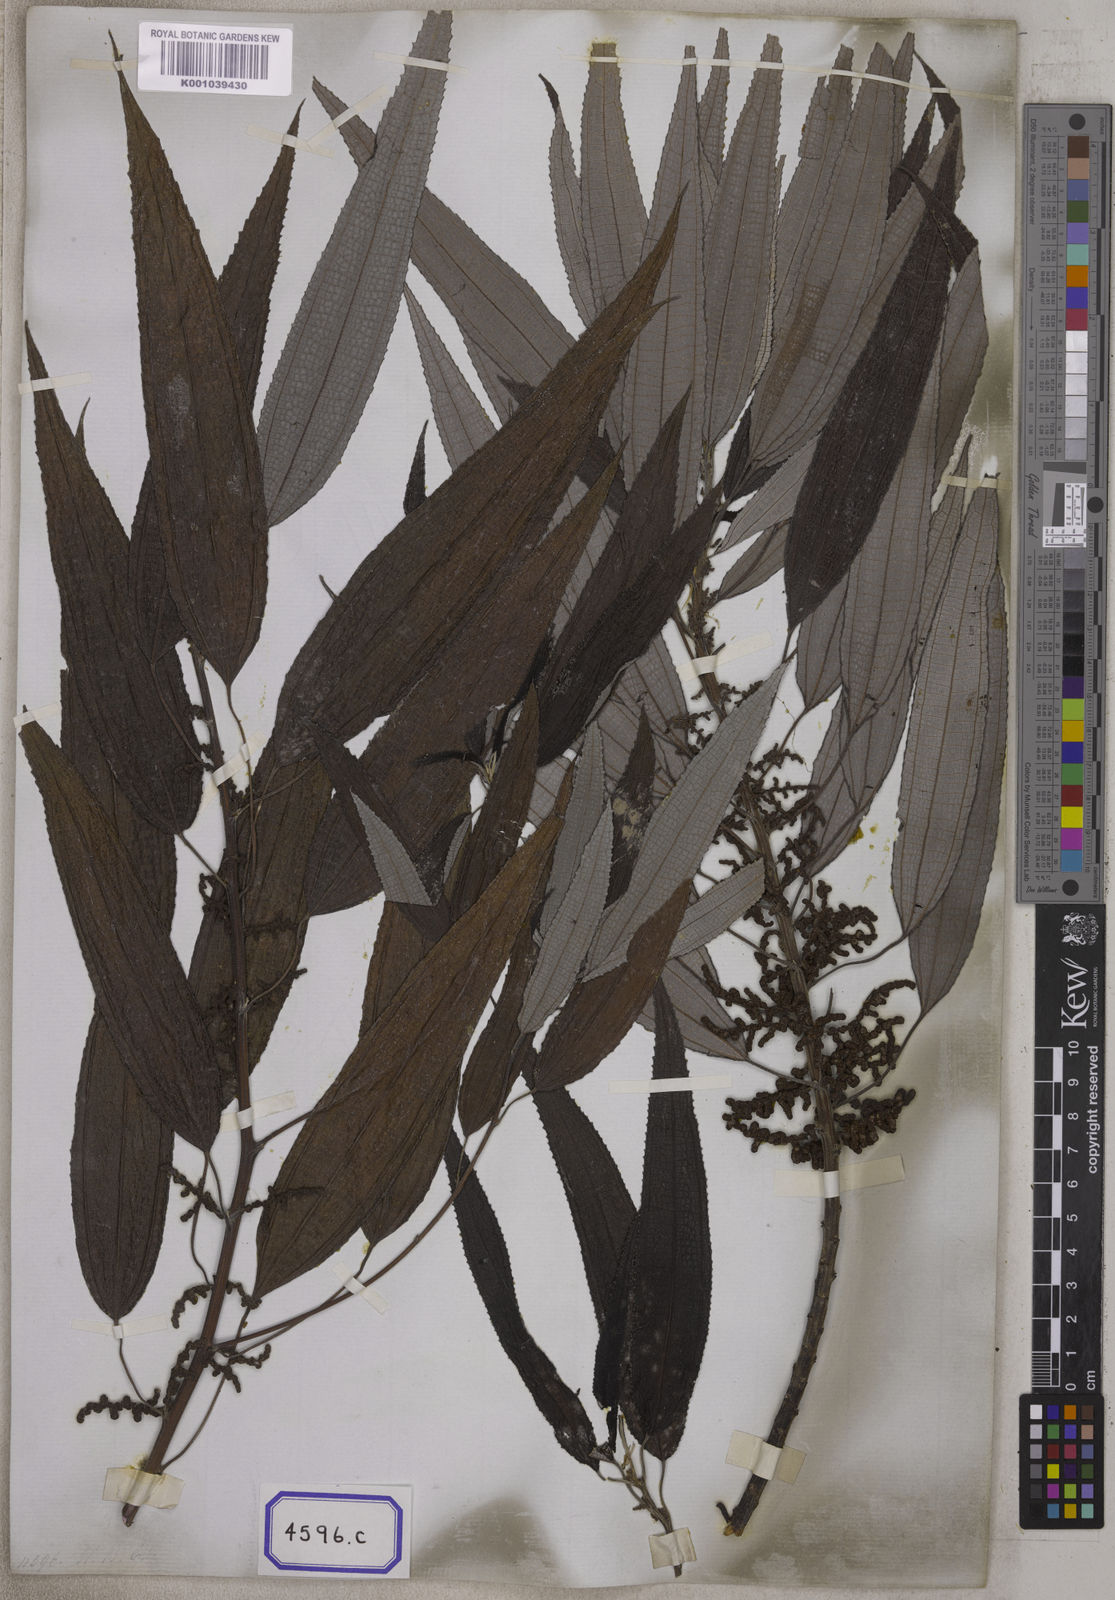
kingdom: Plantae
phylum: Tracheophyta
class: Magnoliopsida
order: Rosales
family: Urticaceae
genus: Boehmeria
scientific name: Boehmeria virgata
